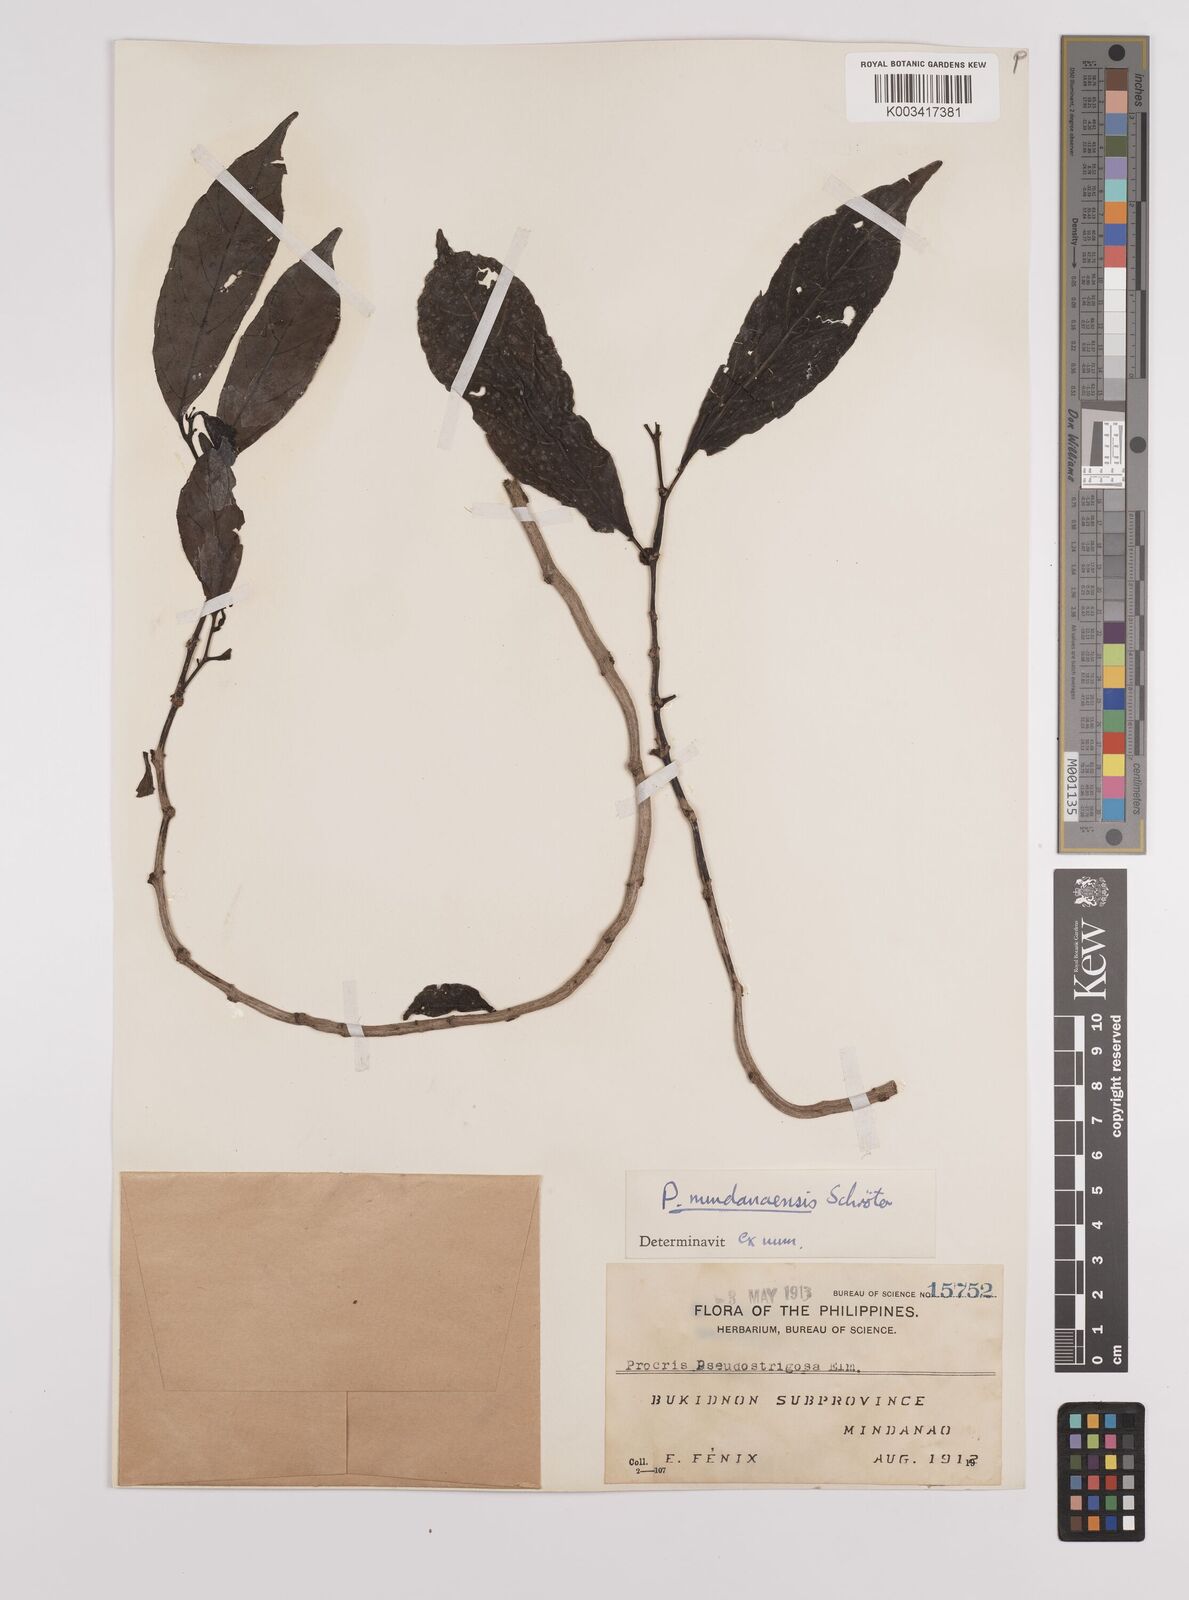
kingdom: Plantae
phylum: Tracheophyta
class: Magnoliopsida
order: Rosales
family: Urticaceae
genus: Procris
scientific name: Procris mindanaensis
